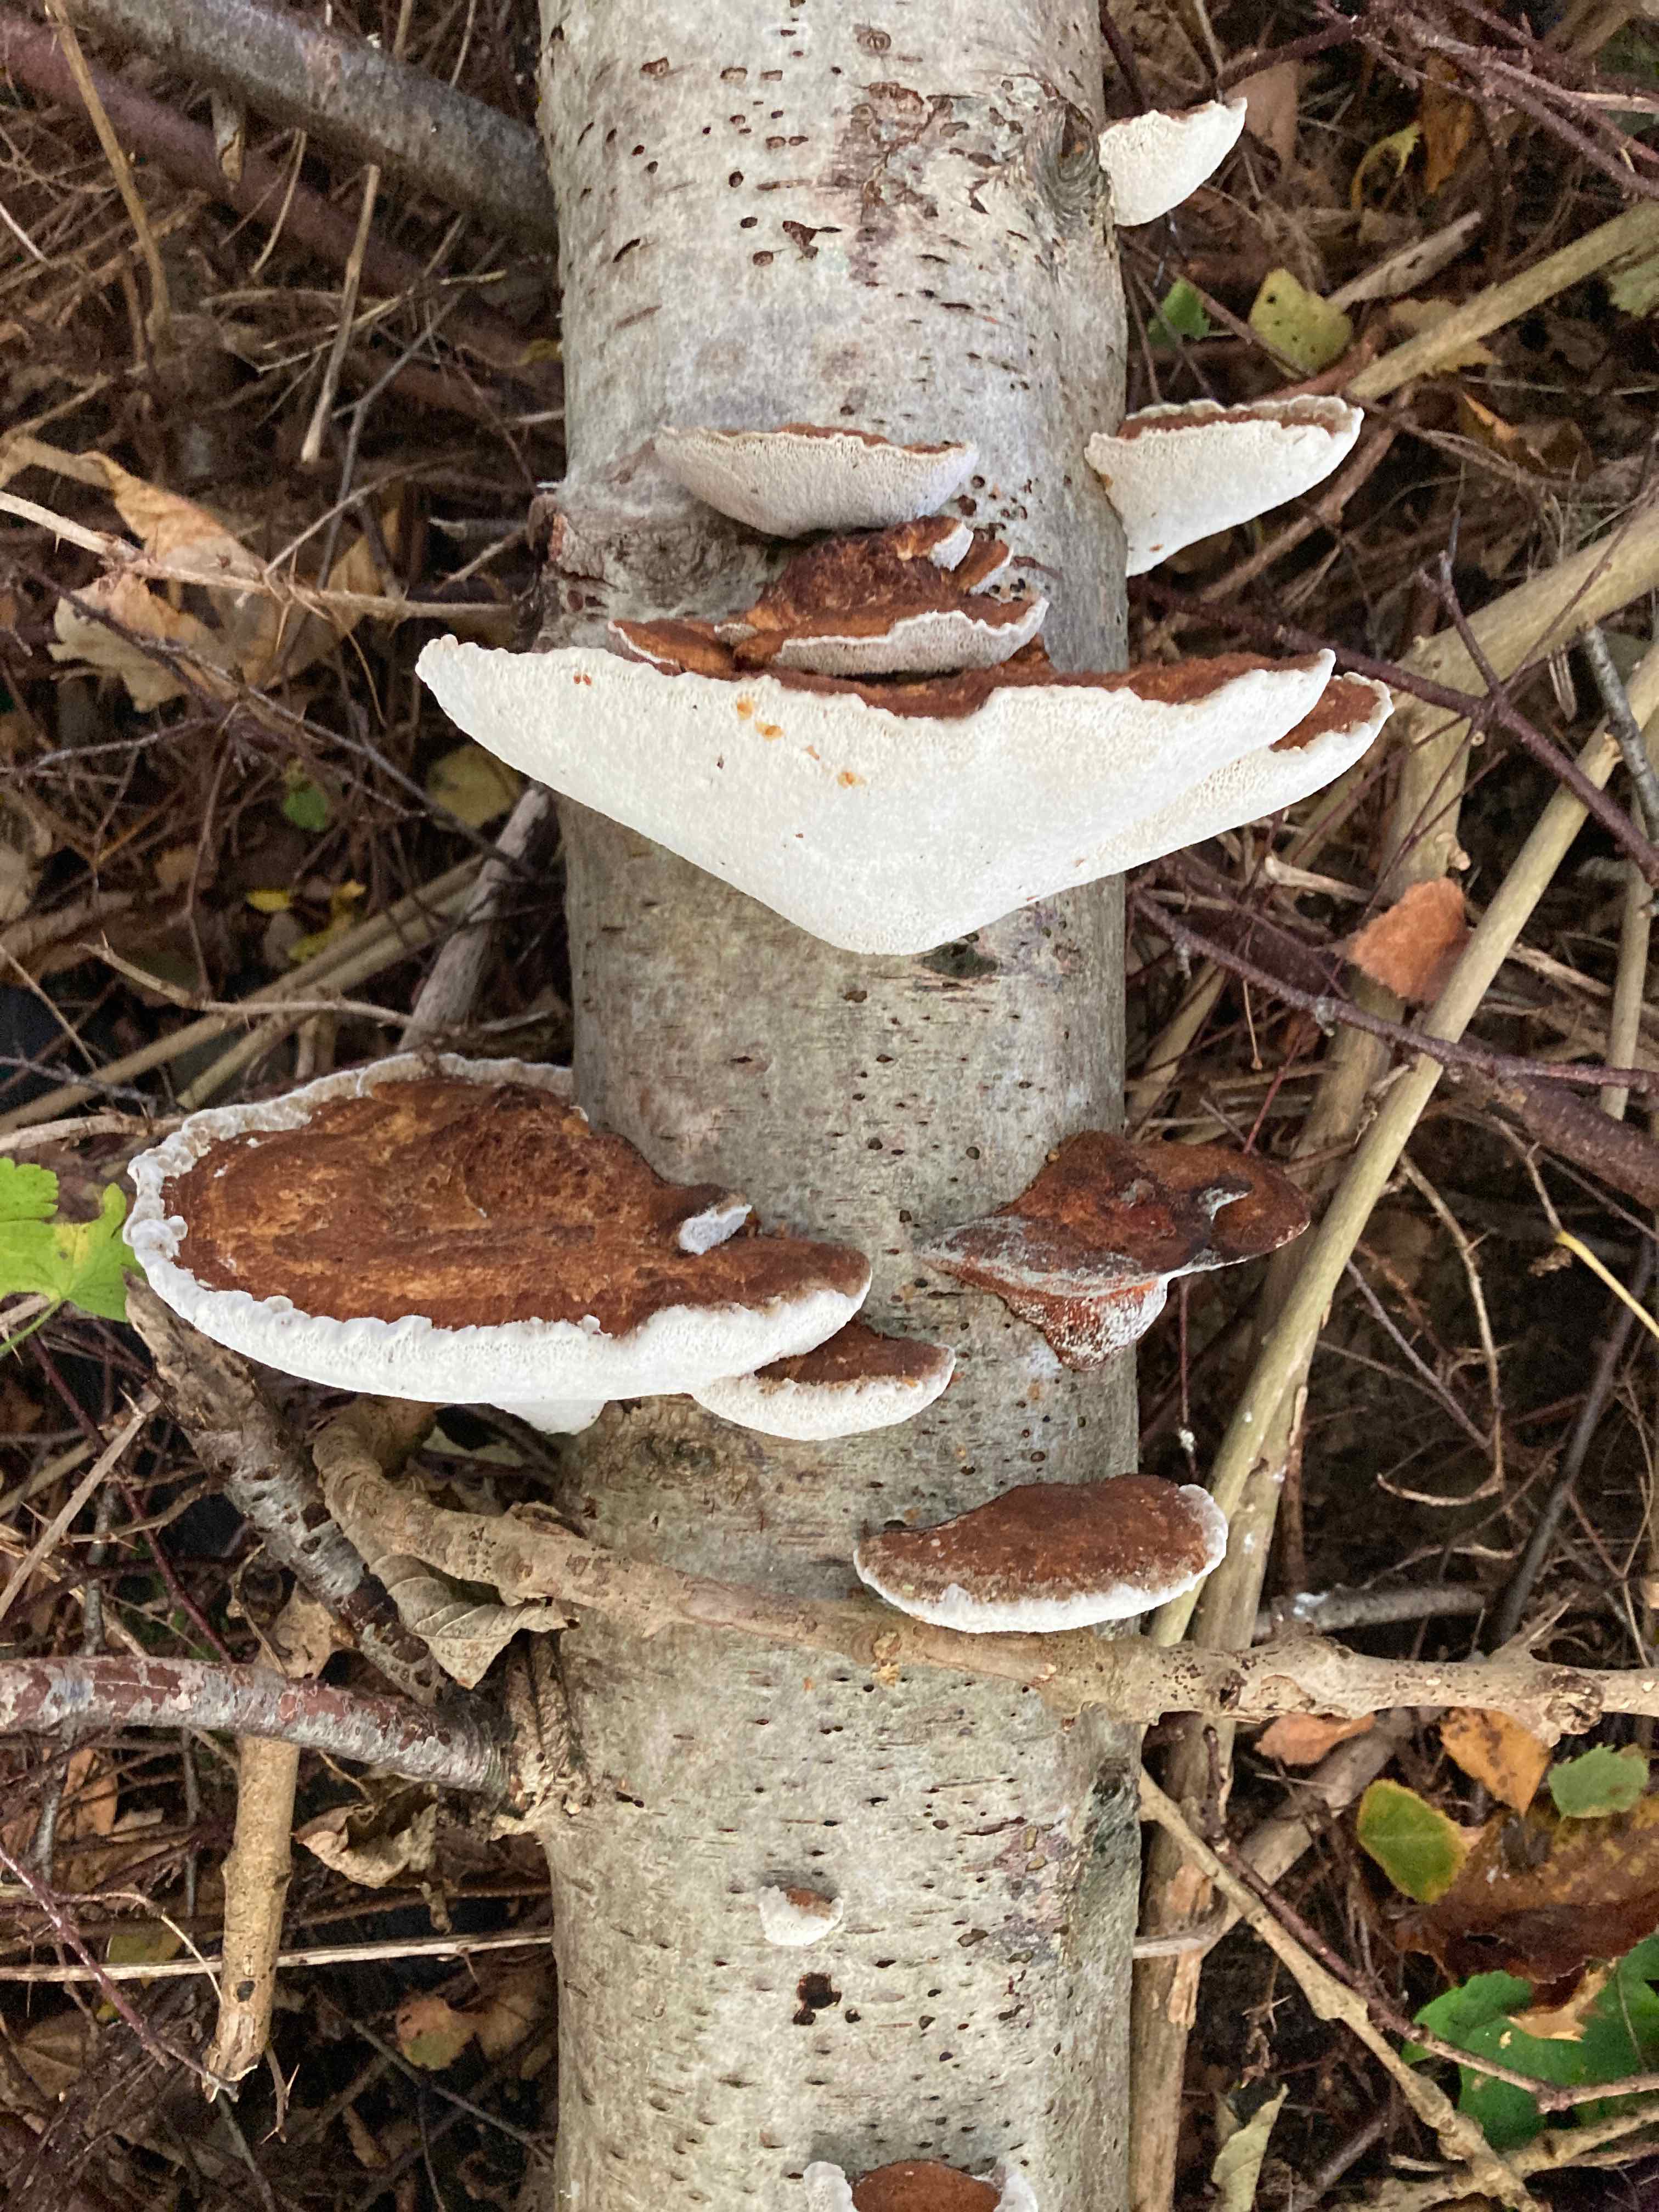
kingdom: Fungi
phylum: Basidiomycota
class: Agaricomycetes
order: Polyporales
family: Polyporaceae
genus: Daedaleopsis
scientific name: Daedaleopsis confragosa
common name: rødmende læderporesvamp
